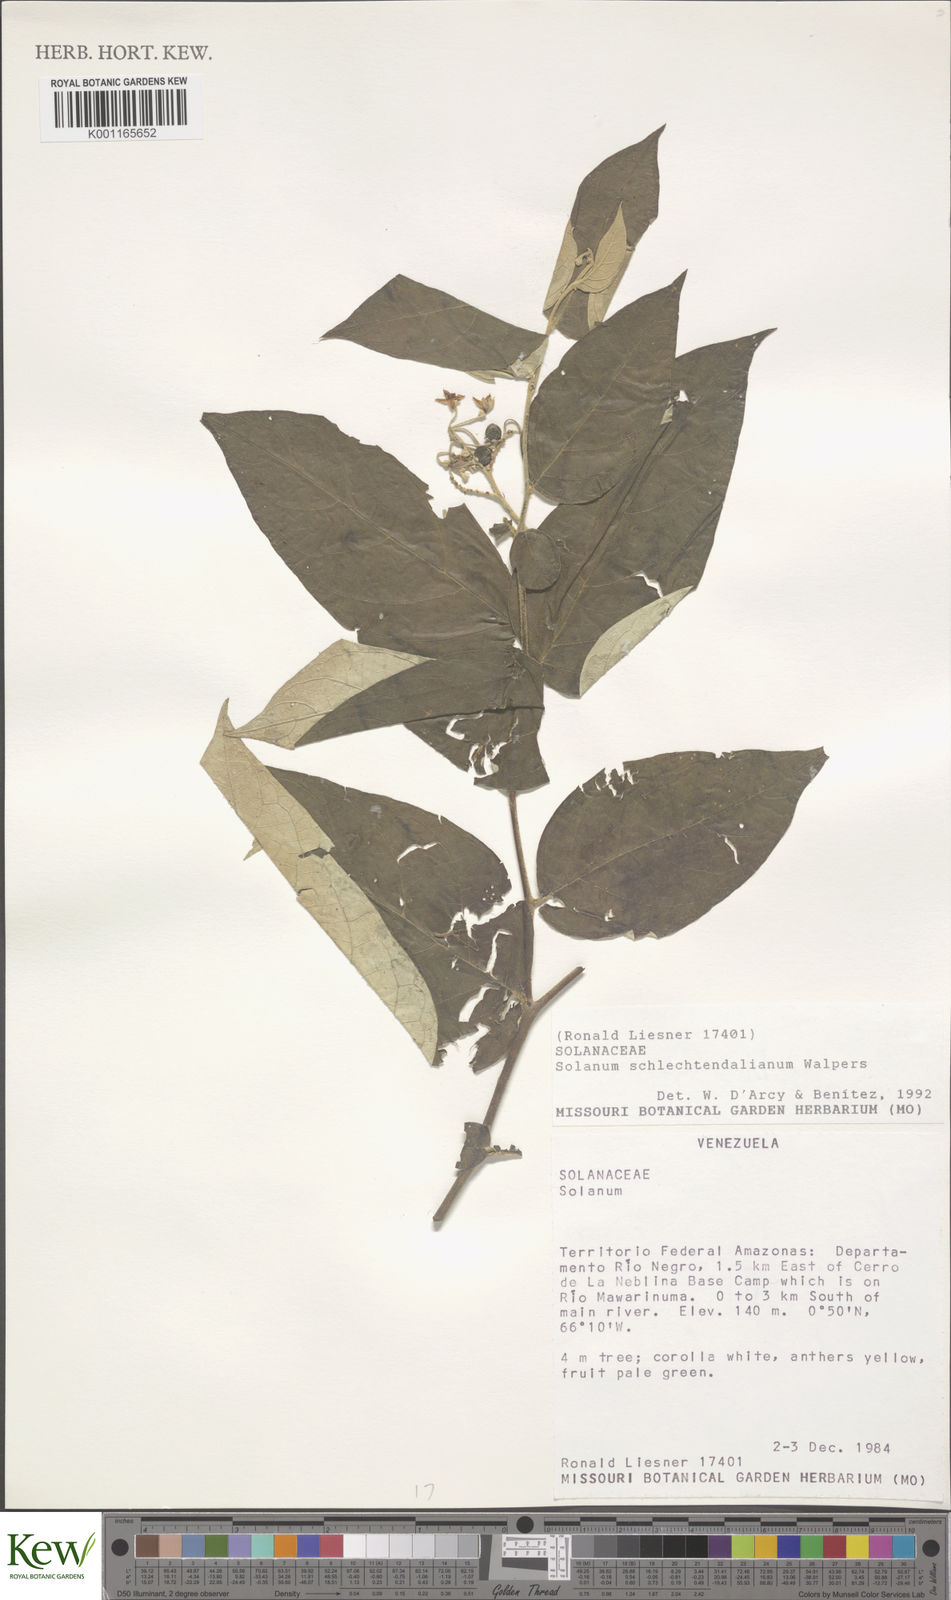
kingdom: Plantae
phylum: Tracheophyta
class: Magnoliopsida
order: Solanales
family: Solanaceae
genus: Solanum
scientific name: Solanum schlechtendalianum
